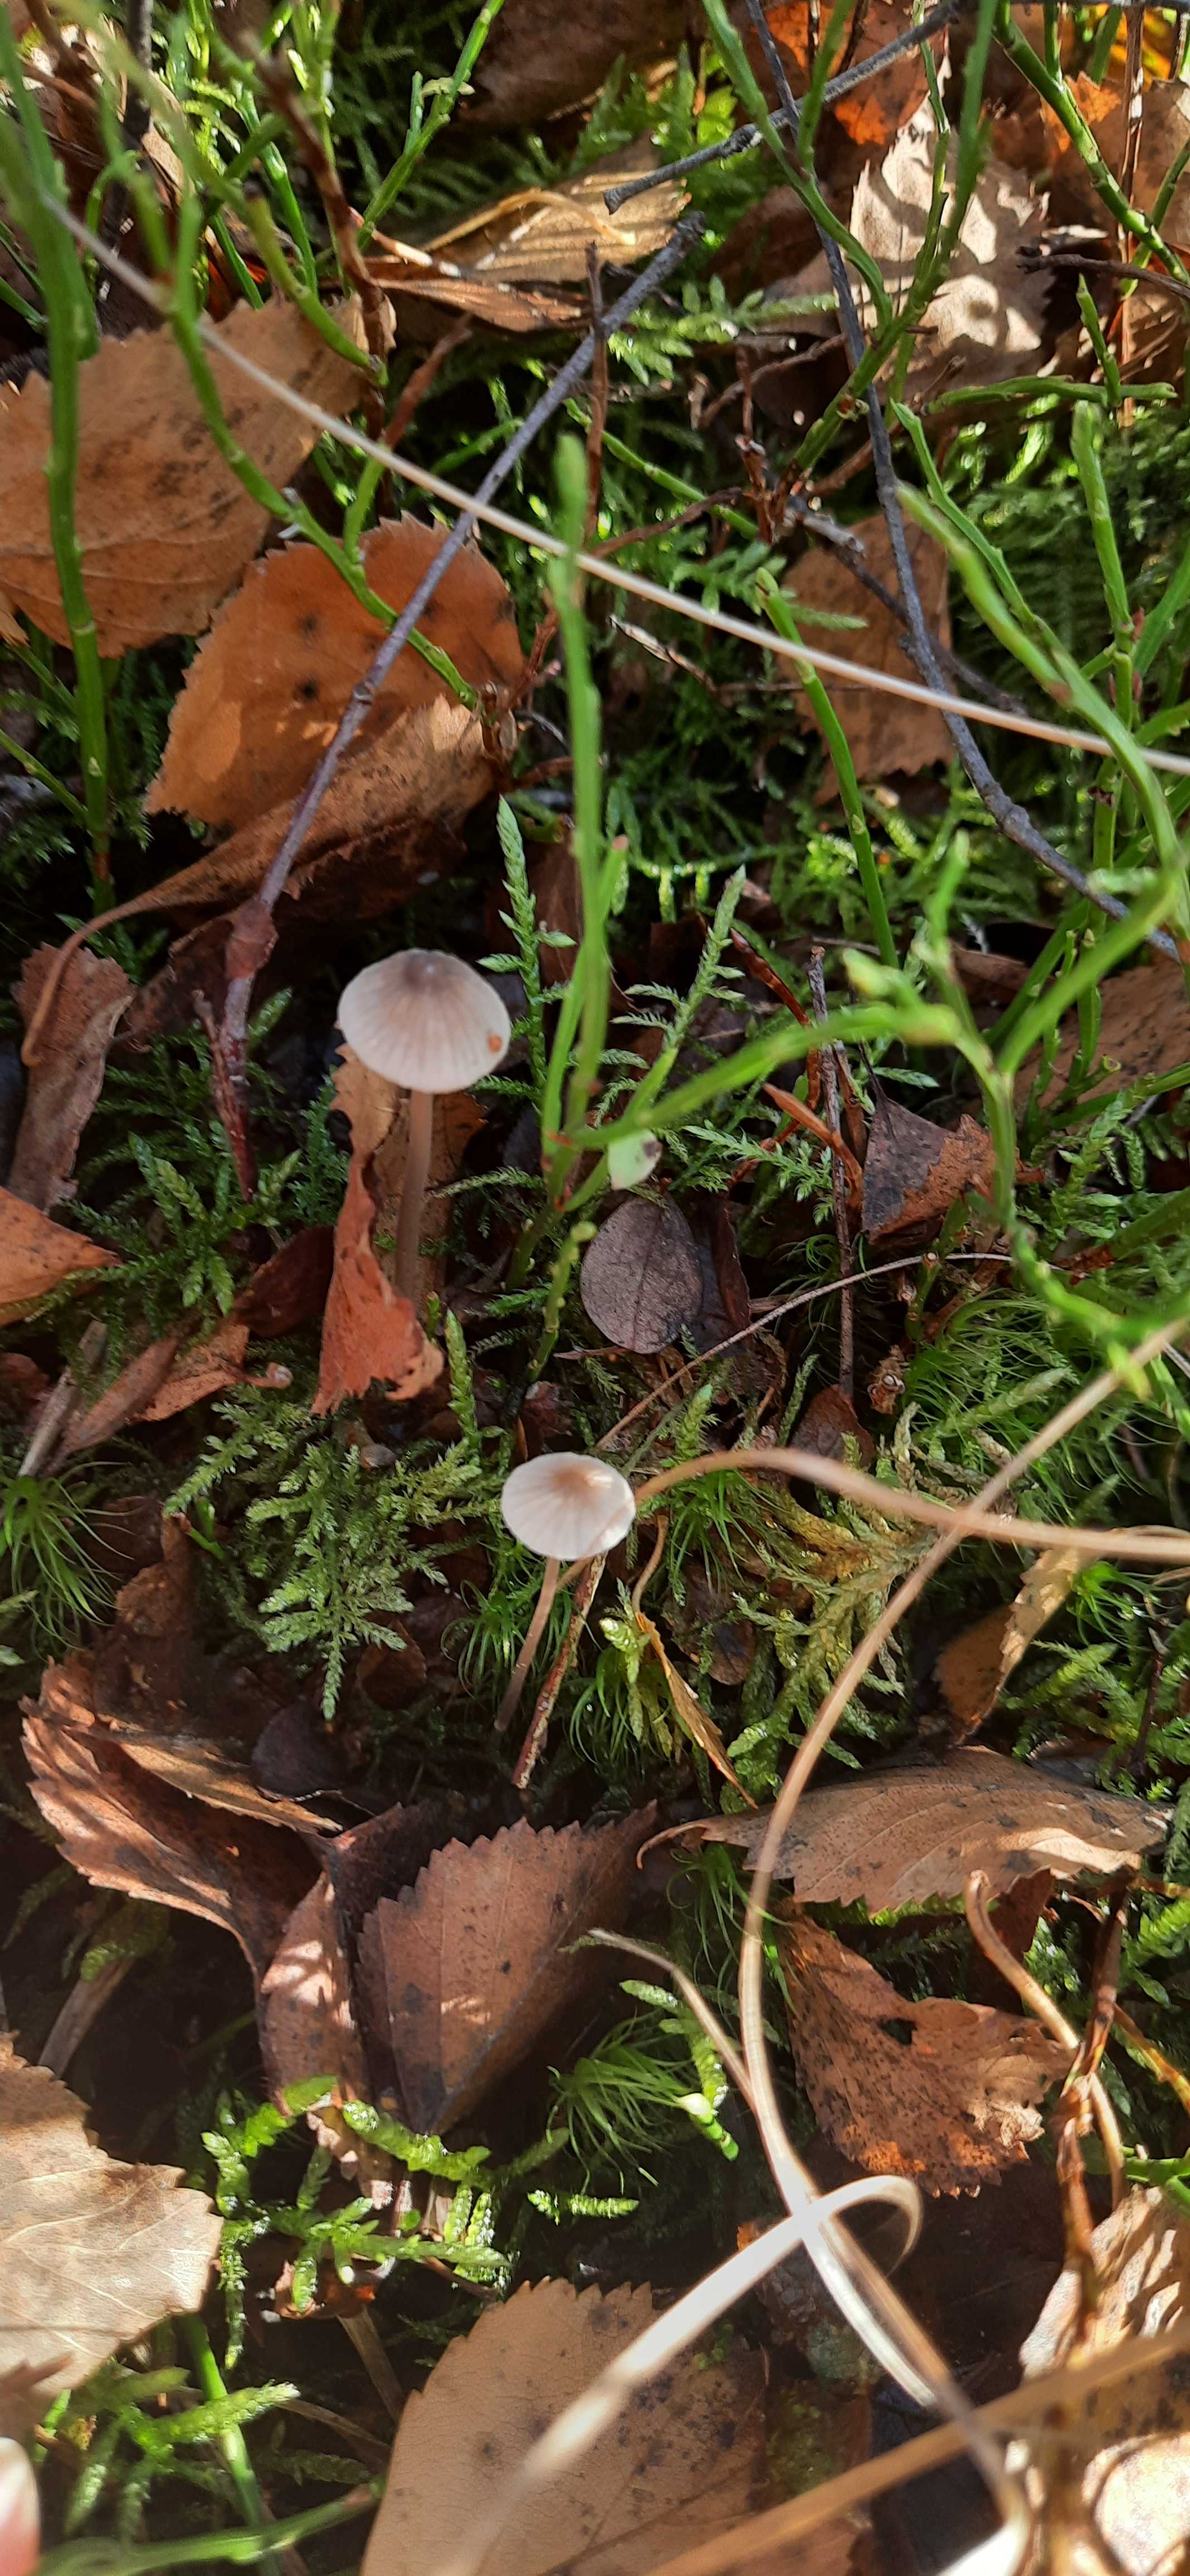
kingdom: Fungi
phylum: Basidiomycota
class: Agaricomycetes
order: Agaricales
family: Mycenaceae
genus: Mycena
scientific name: Mycena
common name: huesvamp
